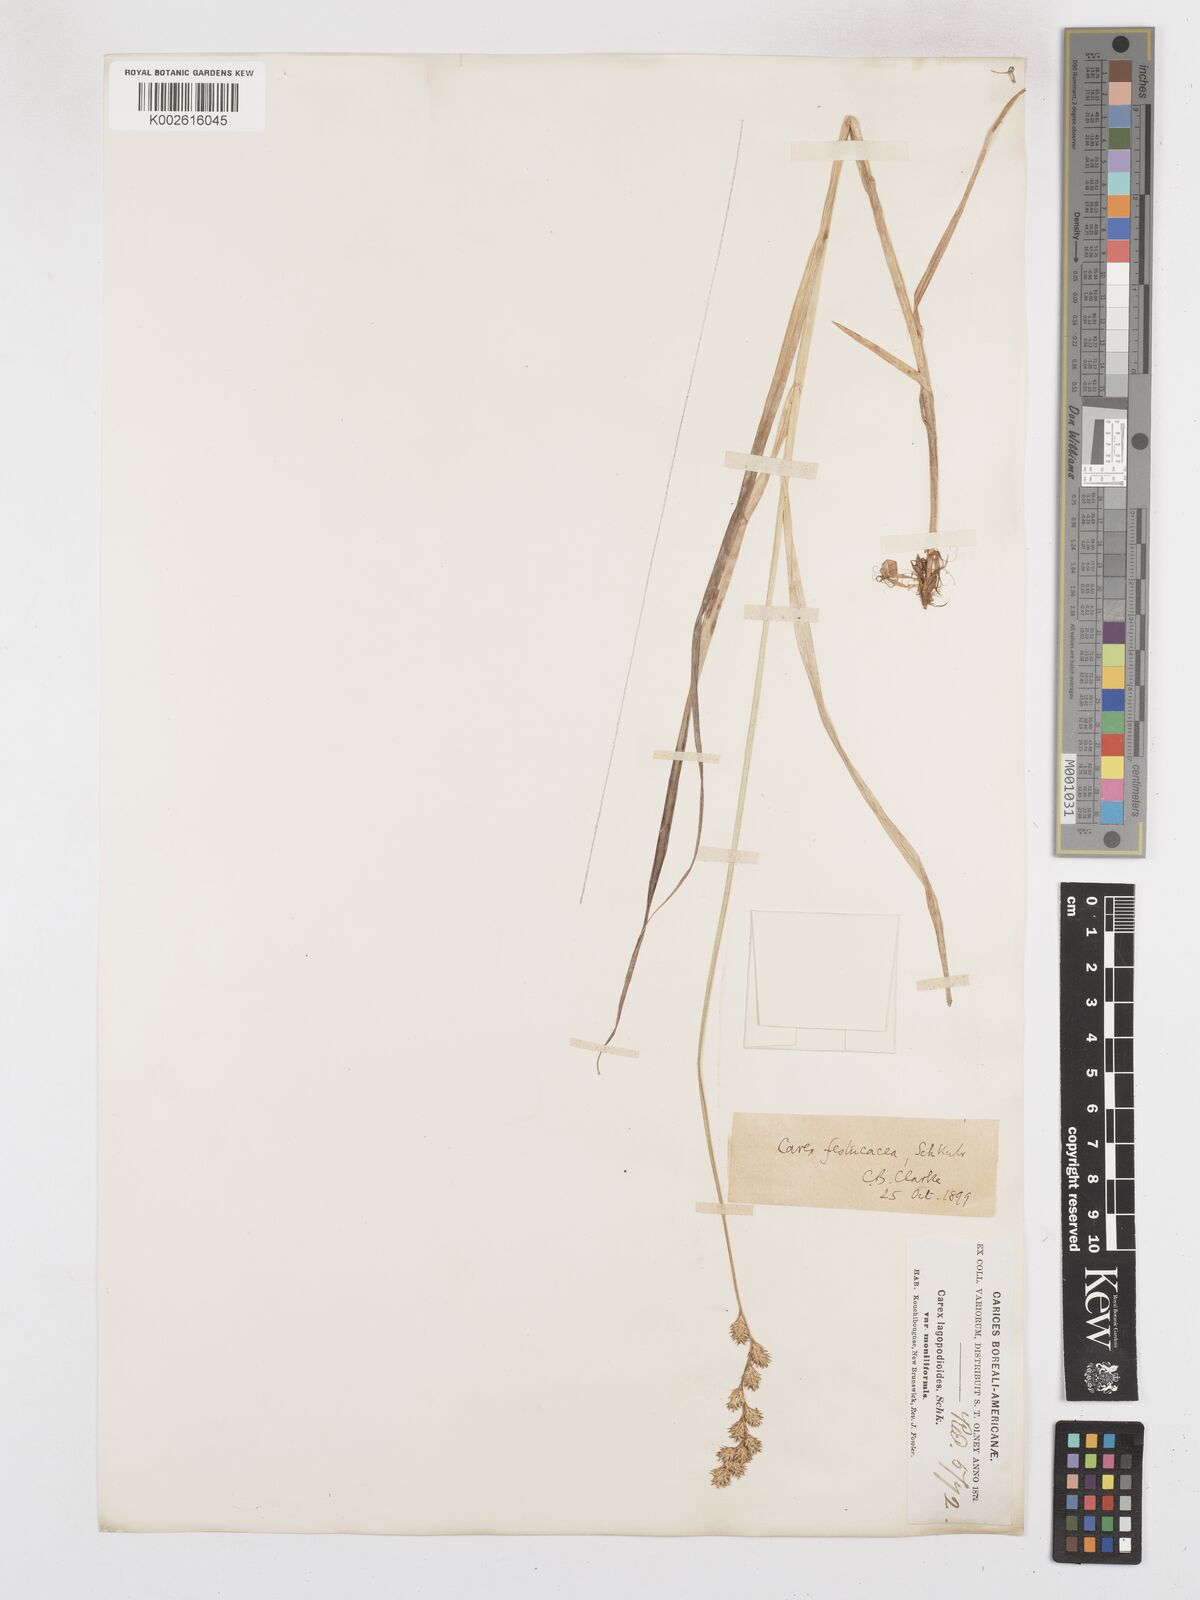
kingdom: Plantae
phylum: Tracheophyta
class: Liliopsida
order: Poales
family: Cyperaceae
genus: Carex
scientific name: Carex festucacea
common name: Fescue oval sedge
